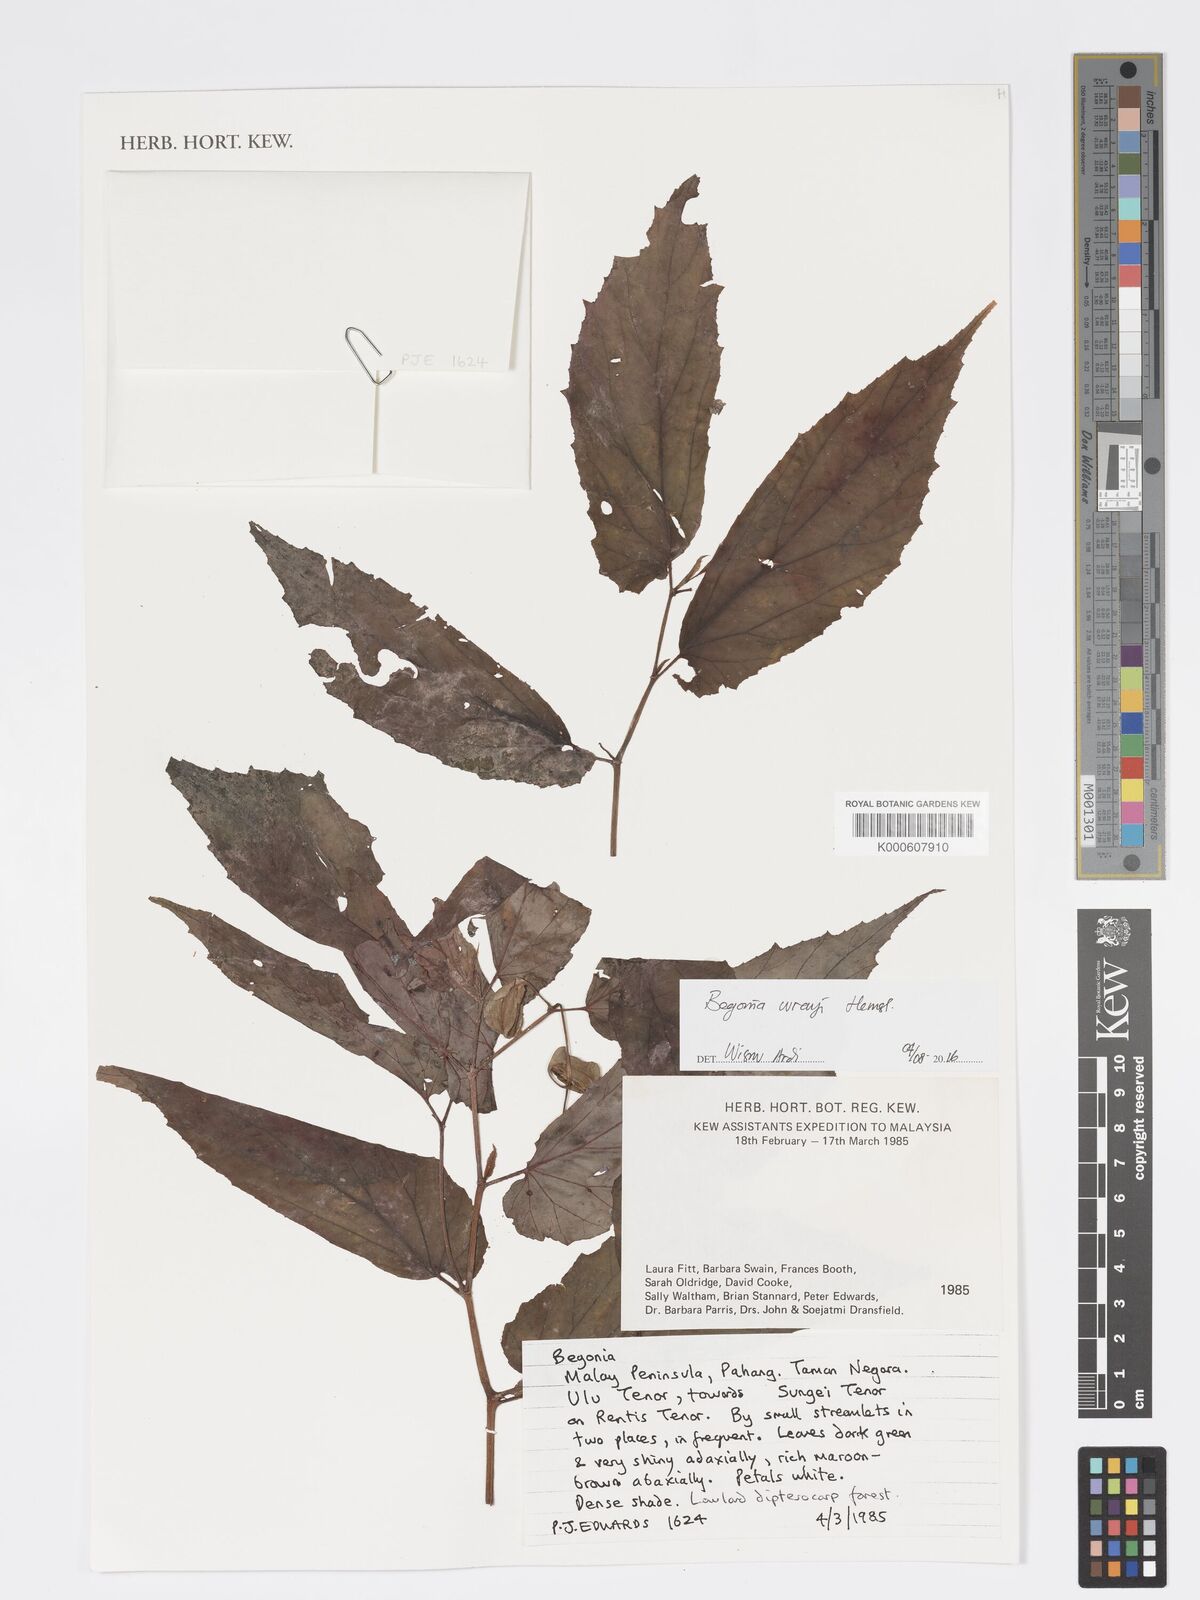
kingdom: Plantae
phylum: Tracheophyta
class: Magnoliopsida
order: Cucurbitales
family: Begoniaceae
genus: Begonia
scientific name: Begonia wrayi
